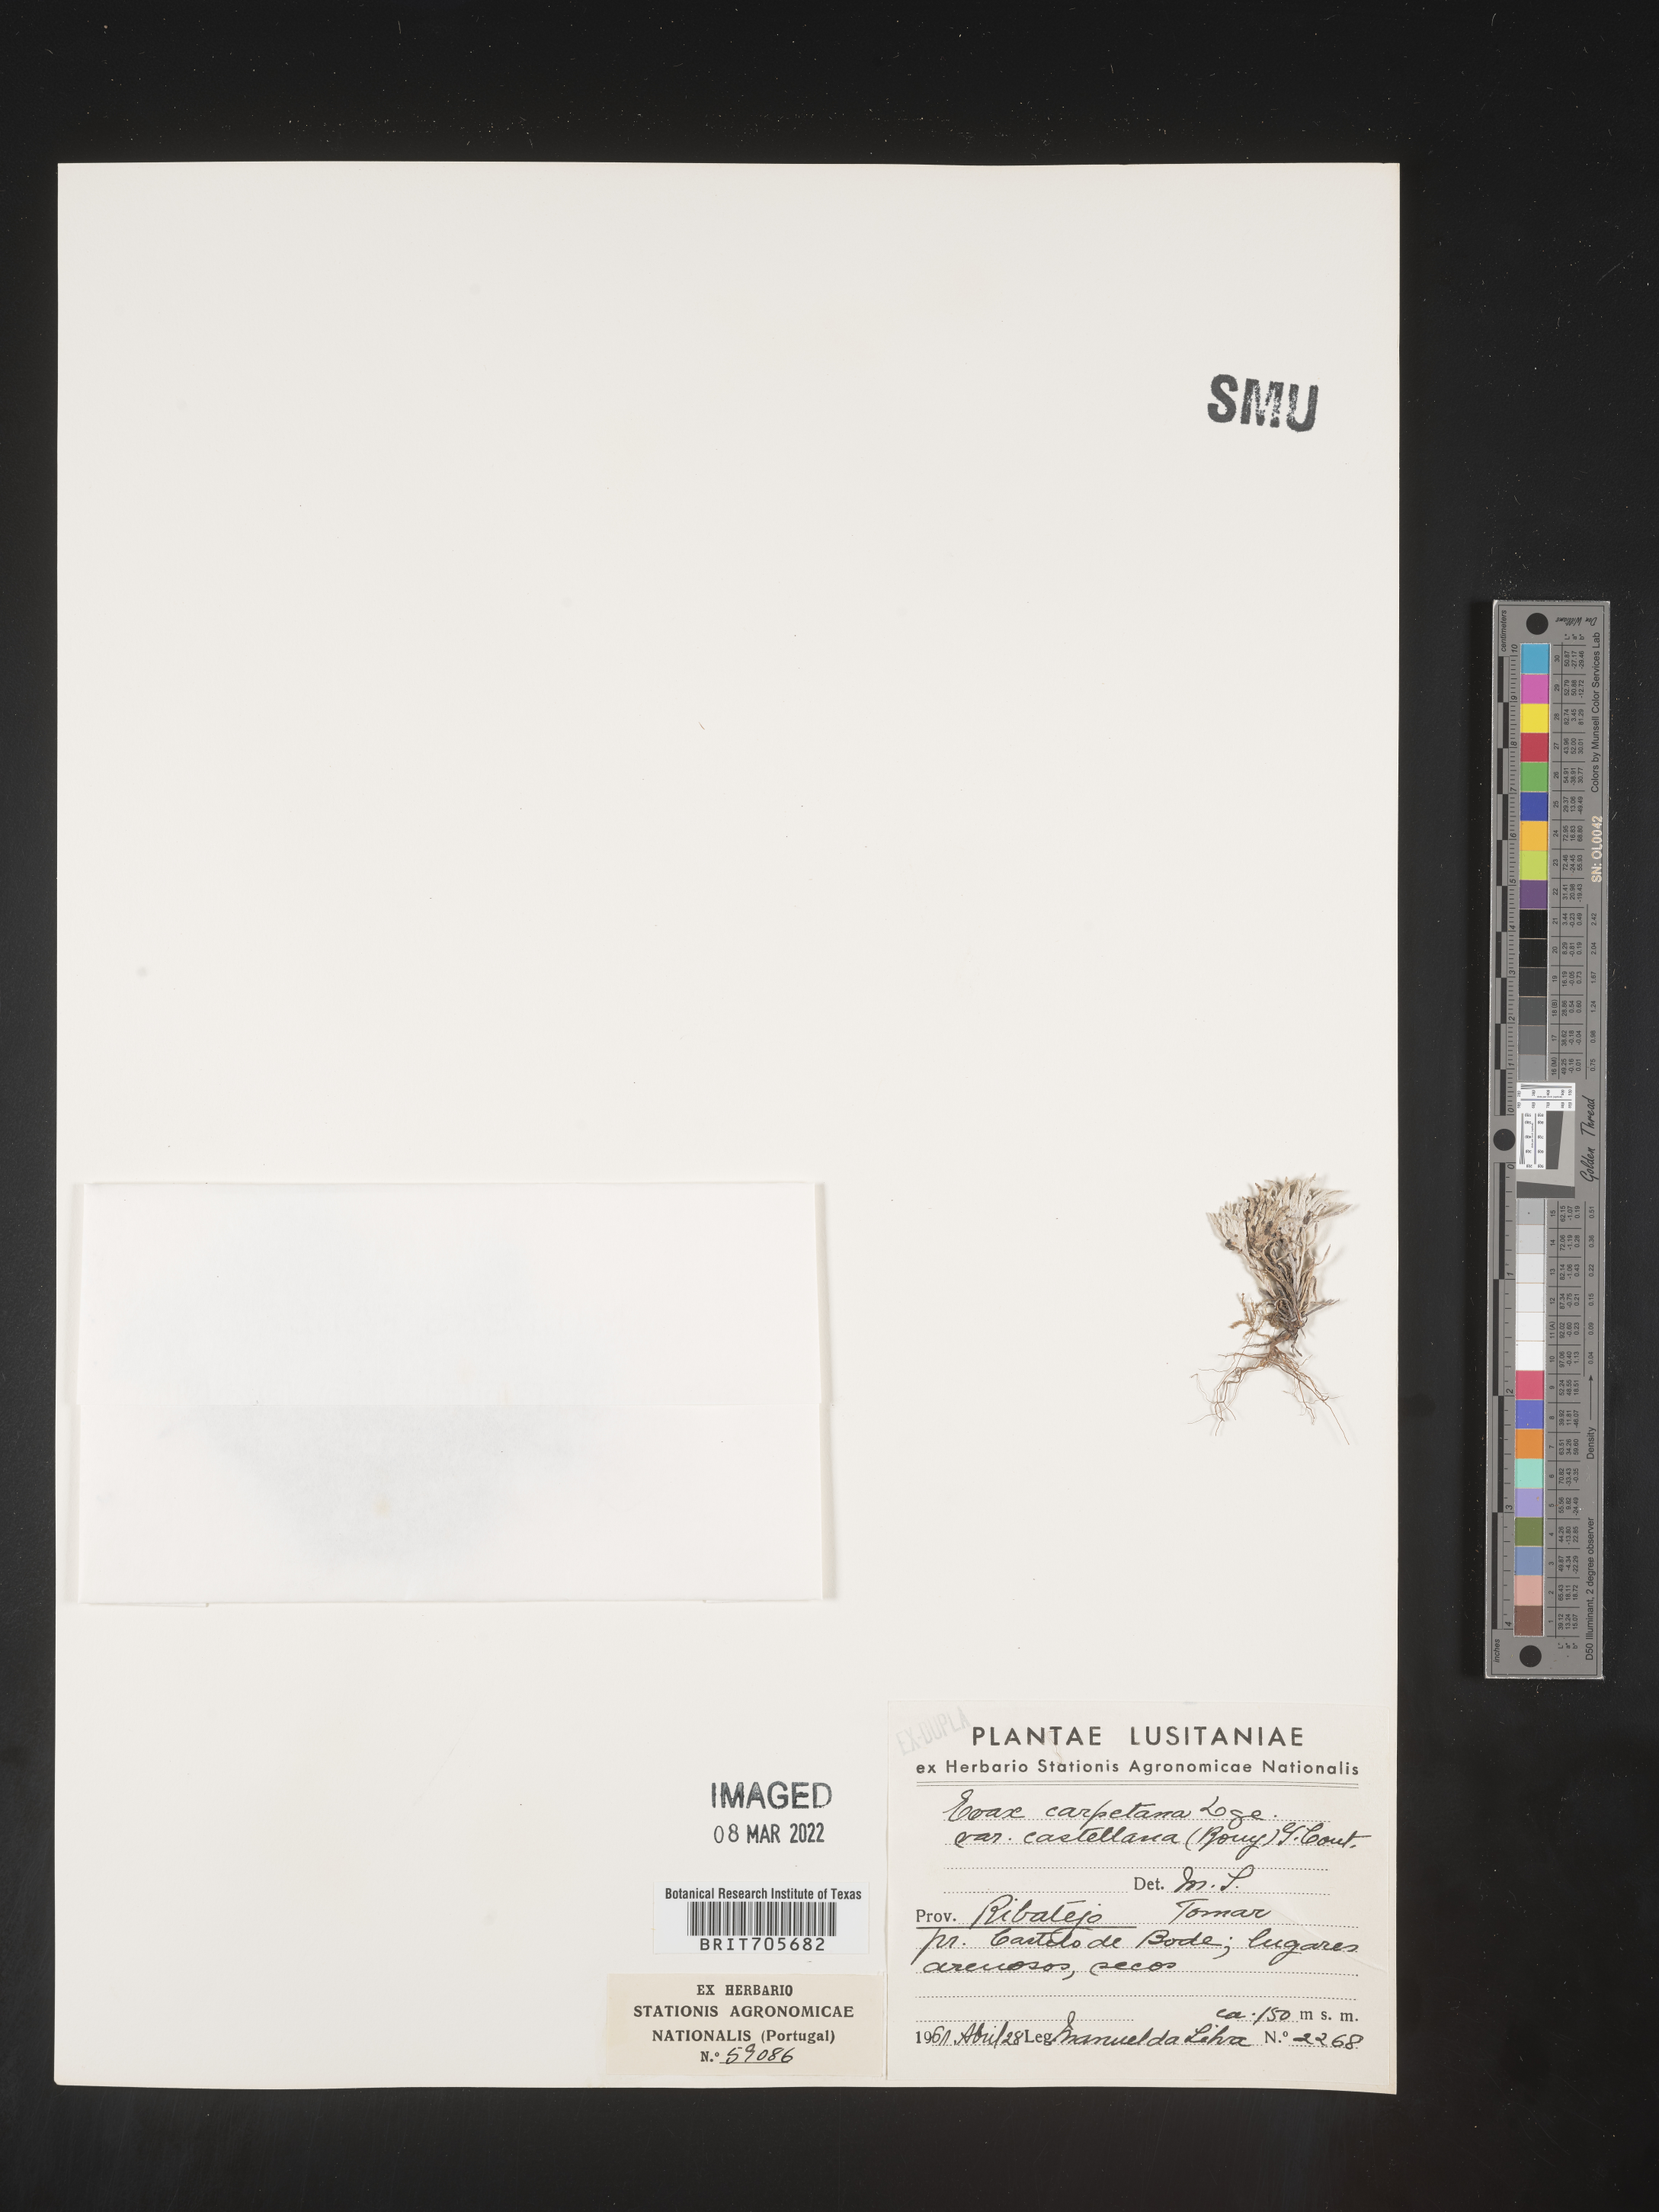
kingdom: Plantae
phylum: Tracheophyta
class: Magnoliopsida
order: Asterales
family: Asteraceae
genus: Filago
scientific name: Filago
